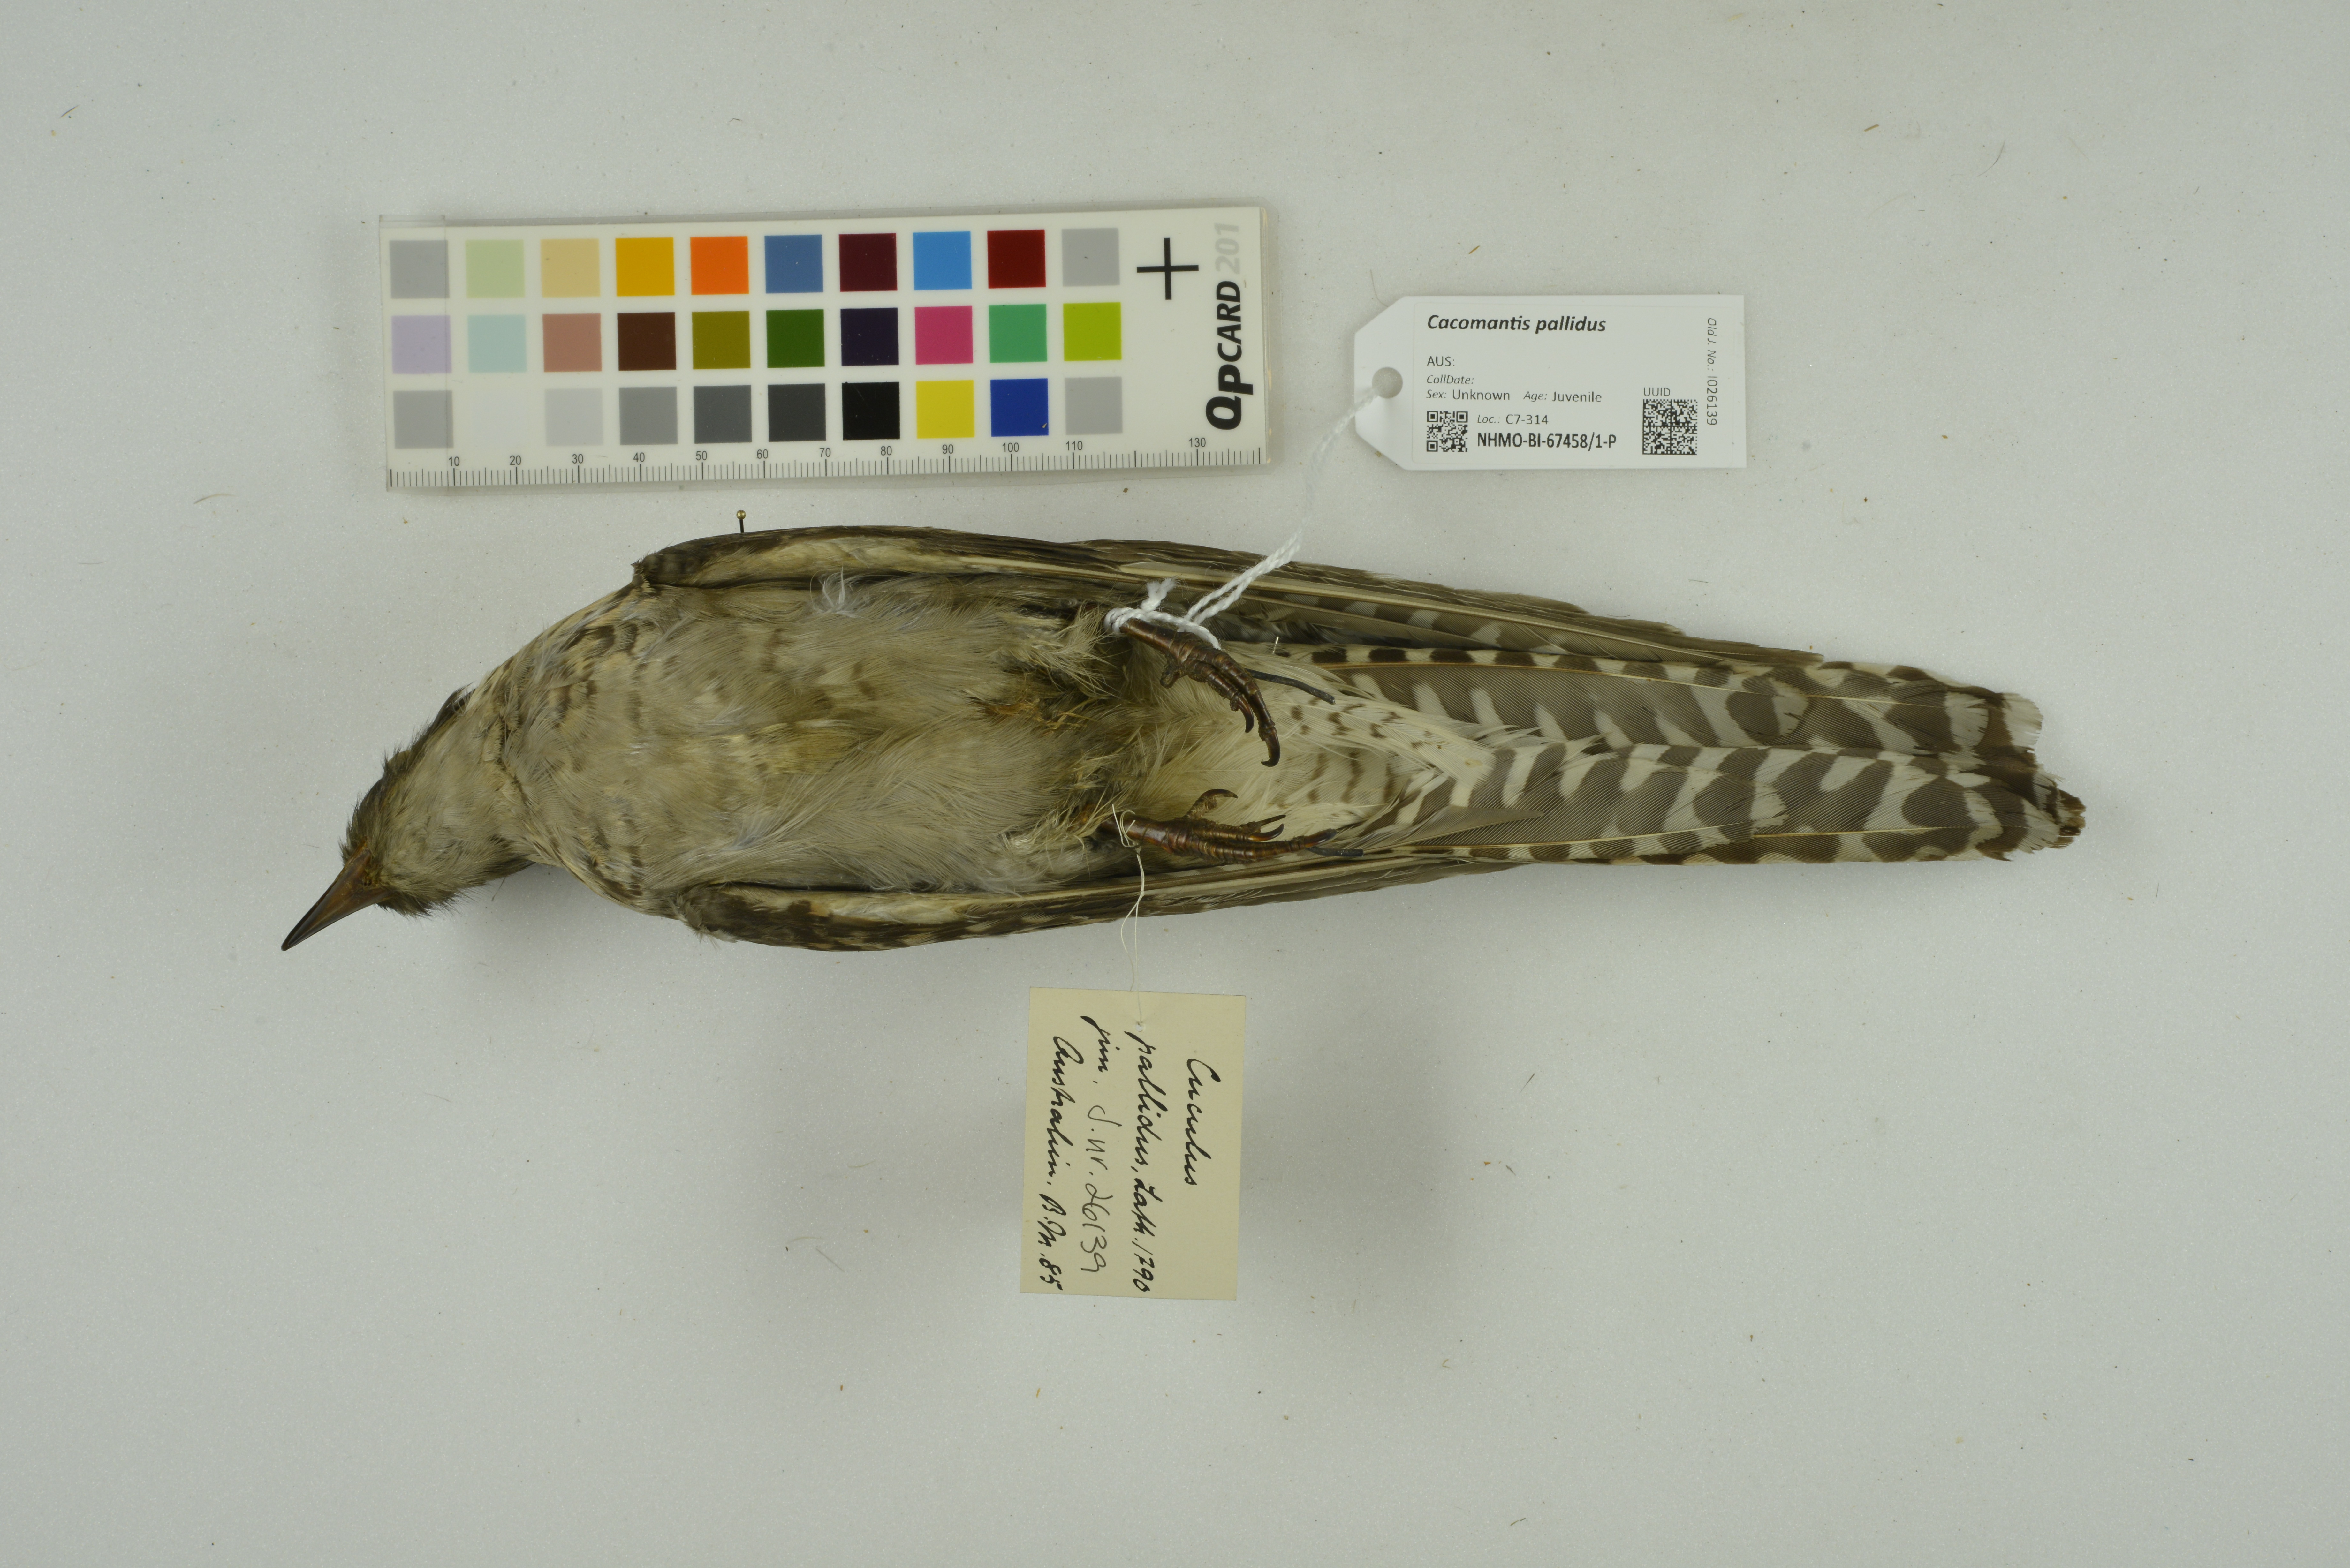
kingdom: Animalia
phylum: Chordata
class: Aves
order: Cuculiformes
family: Cuculidae
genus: Cuculus
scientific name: Cuculus pallidus
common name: Pallid cuckoo
